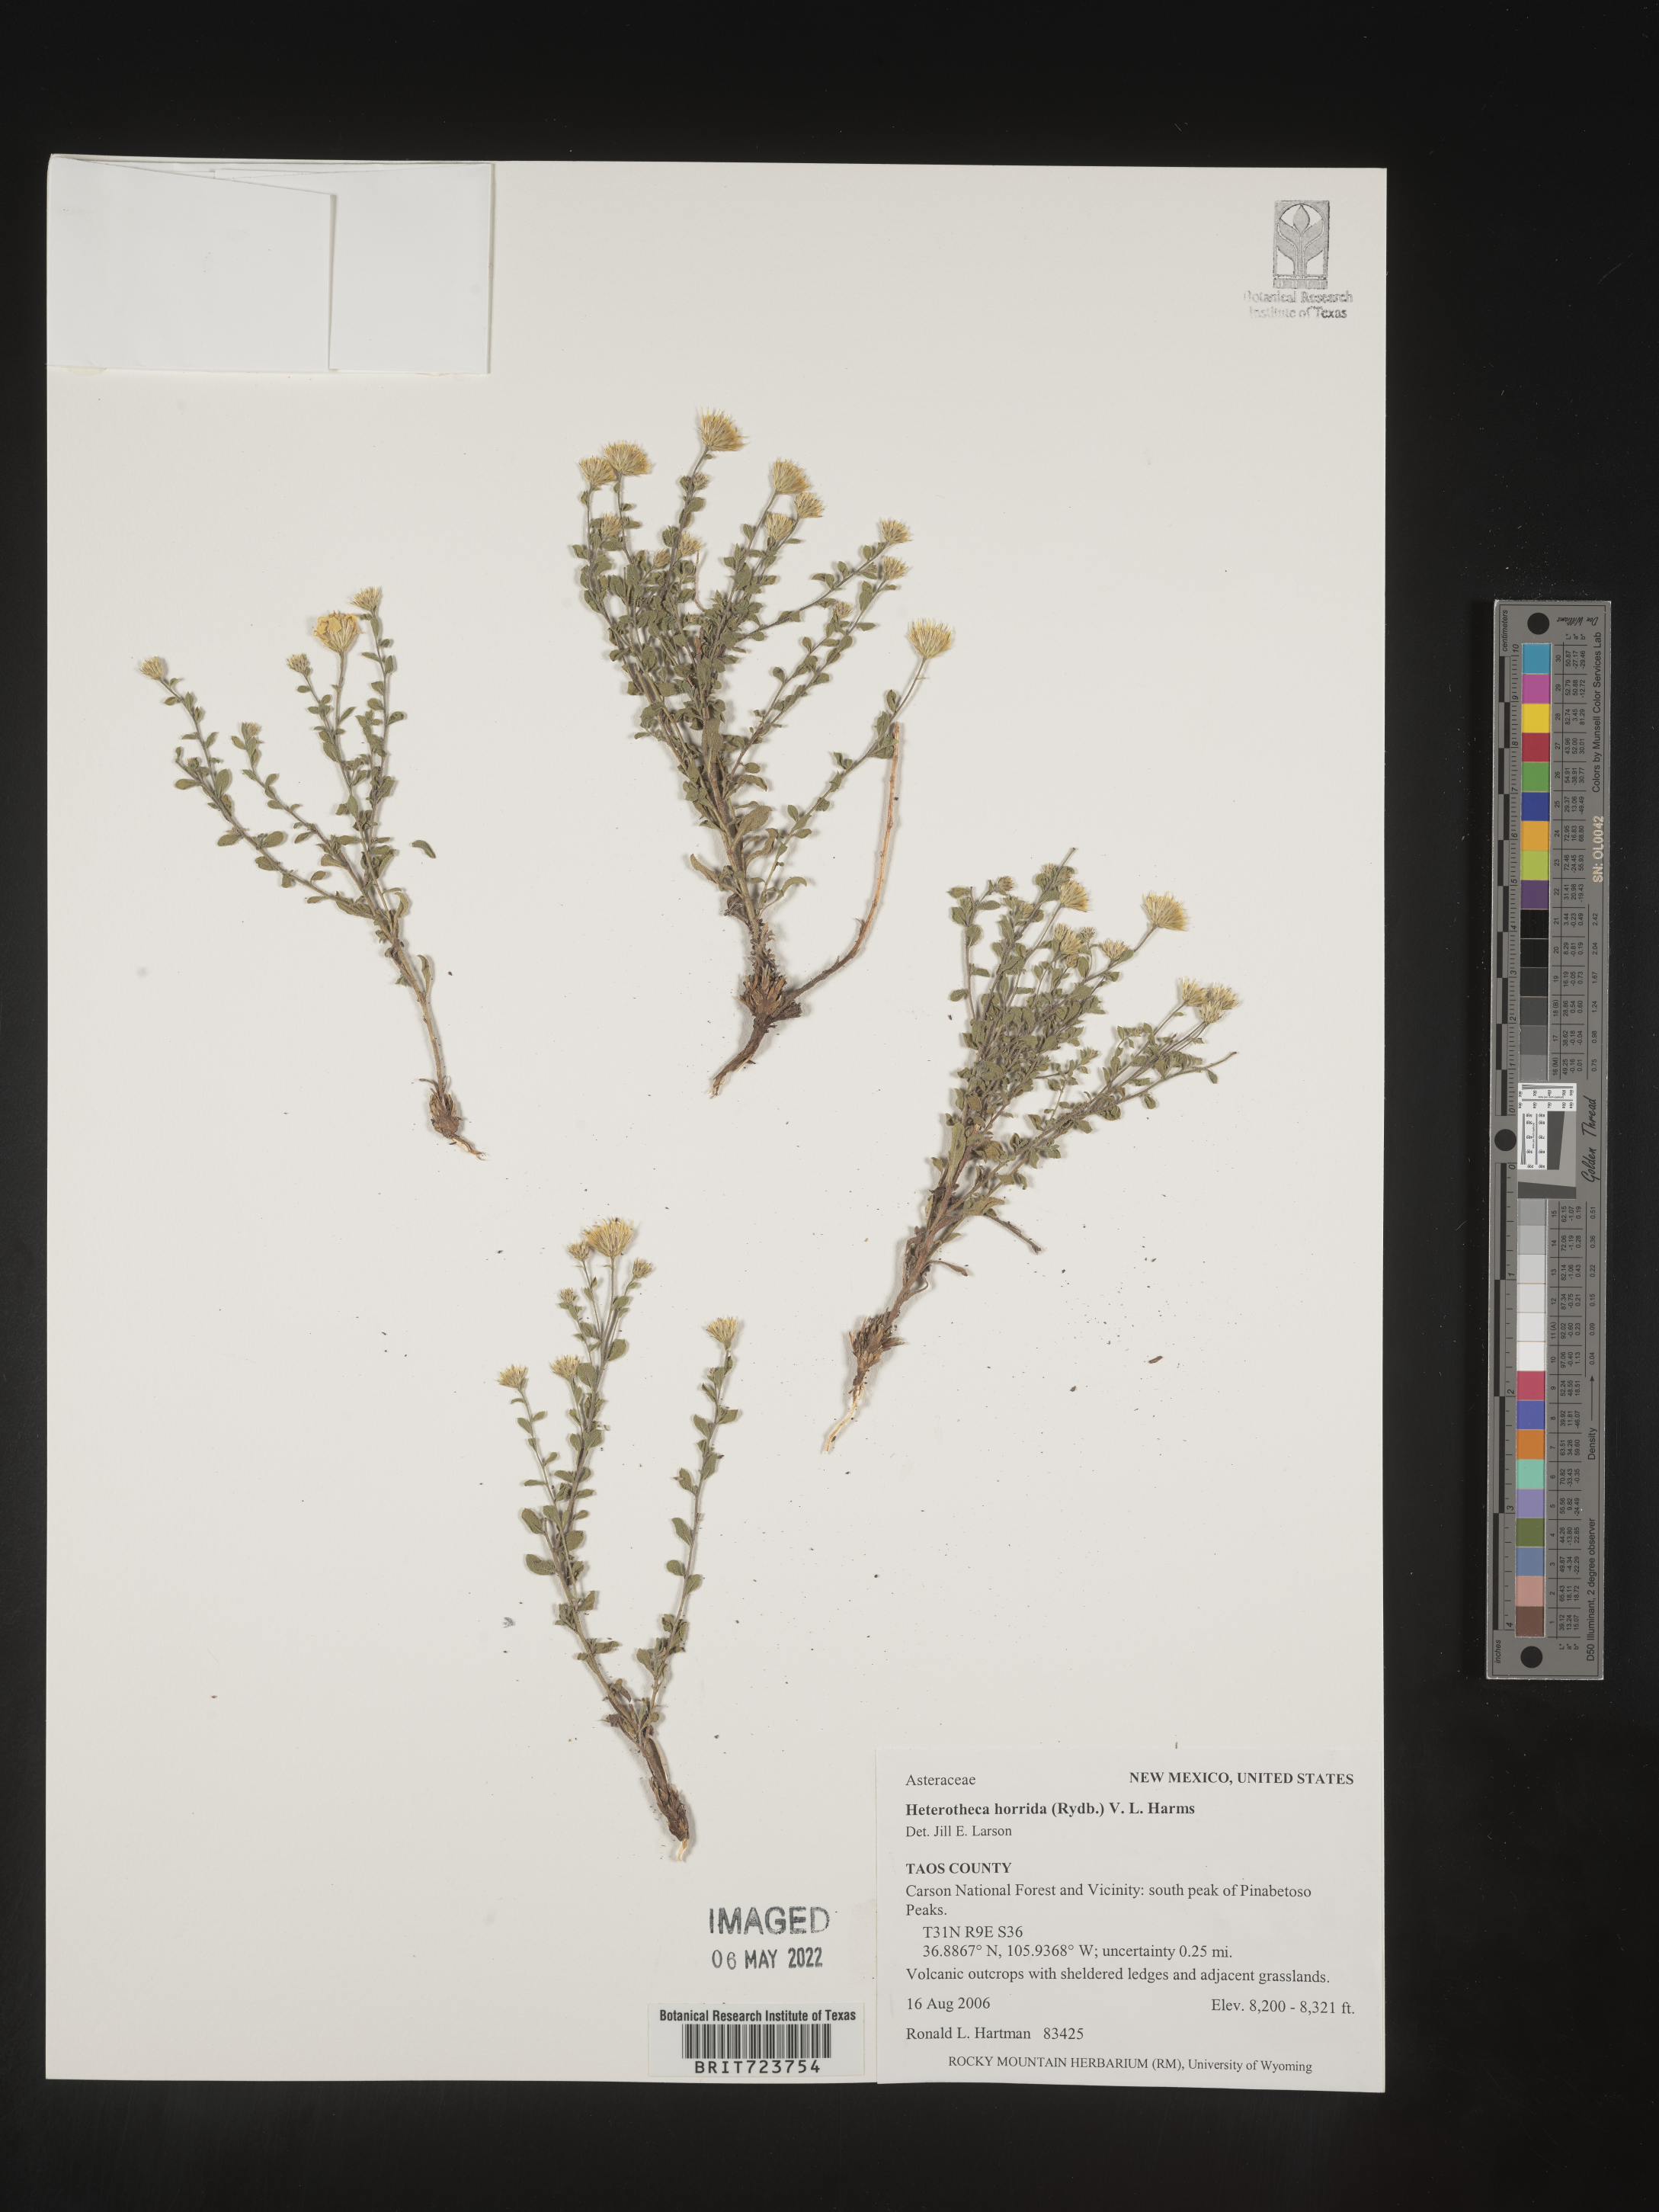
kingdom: Plantae
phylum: Tracheophyta
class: Magnoliopsida
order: Asterales
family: Asteraceae
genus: Heterotheca
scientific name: Heterotheca hirsutissima
